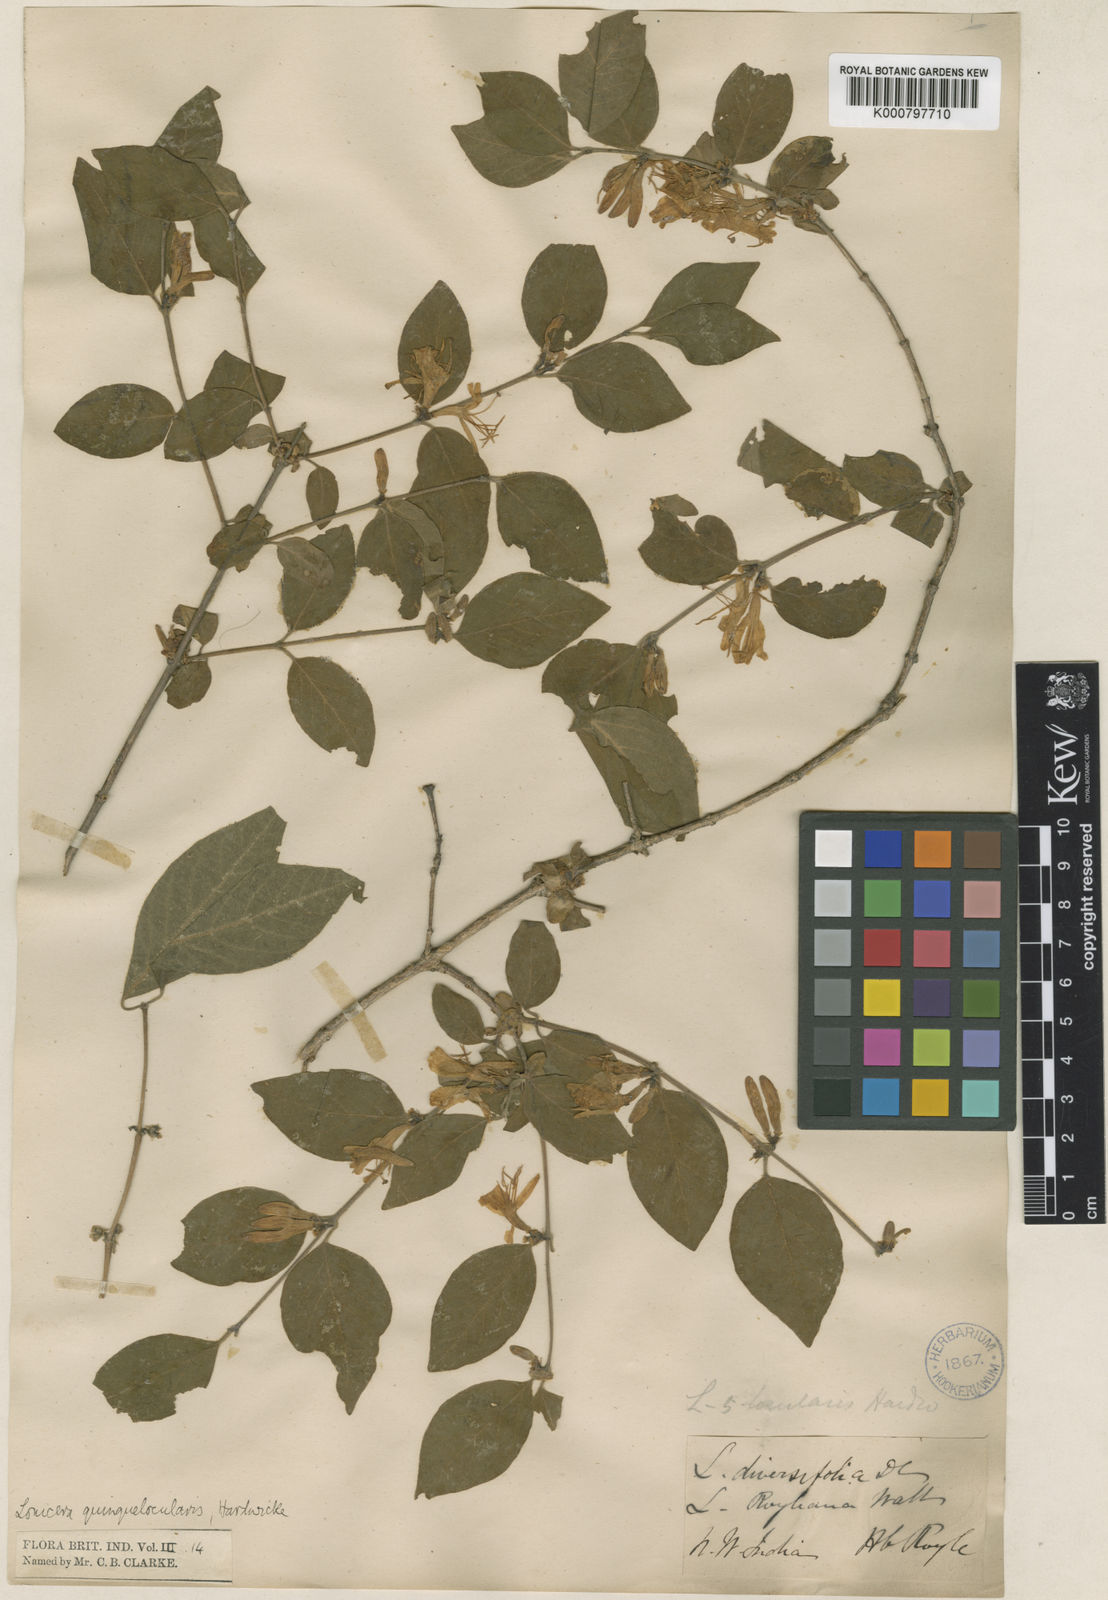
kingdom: Plantae
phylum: Tracheophyta
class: Magnoliopsida
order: Dipsacales
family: Caprifoliaceae
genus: Lonicera
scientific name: Lonicera quinquelocularis
